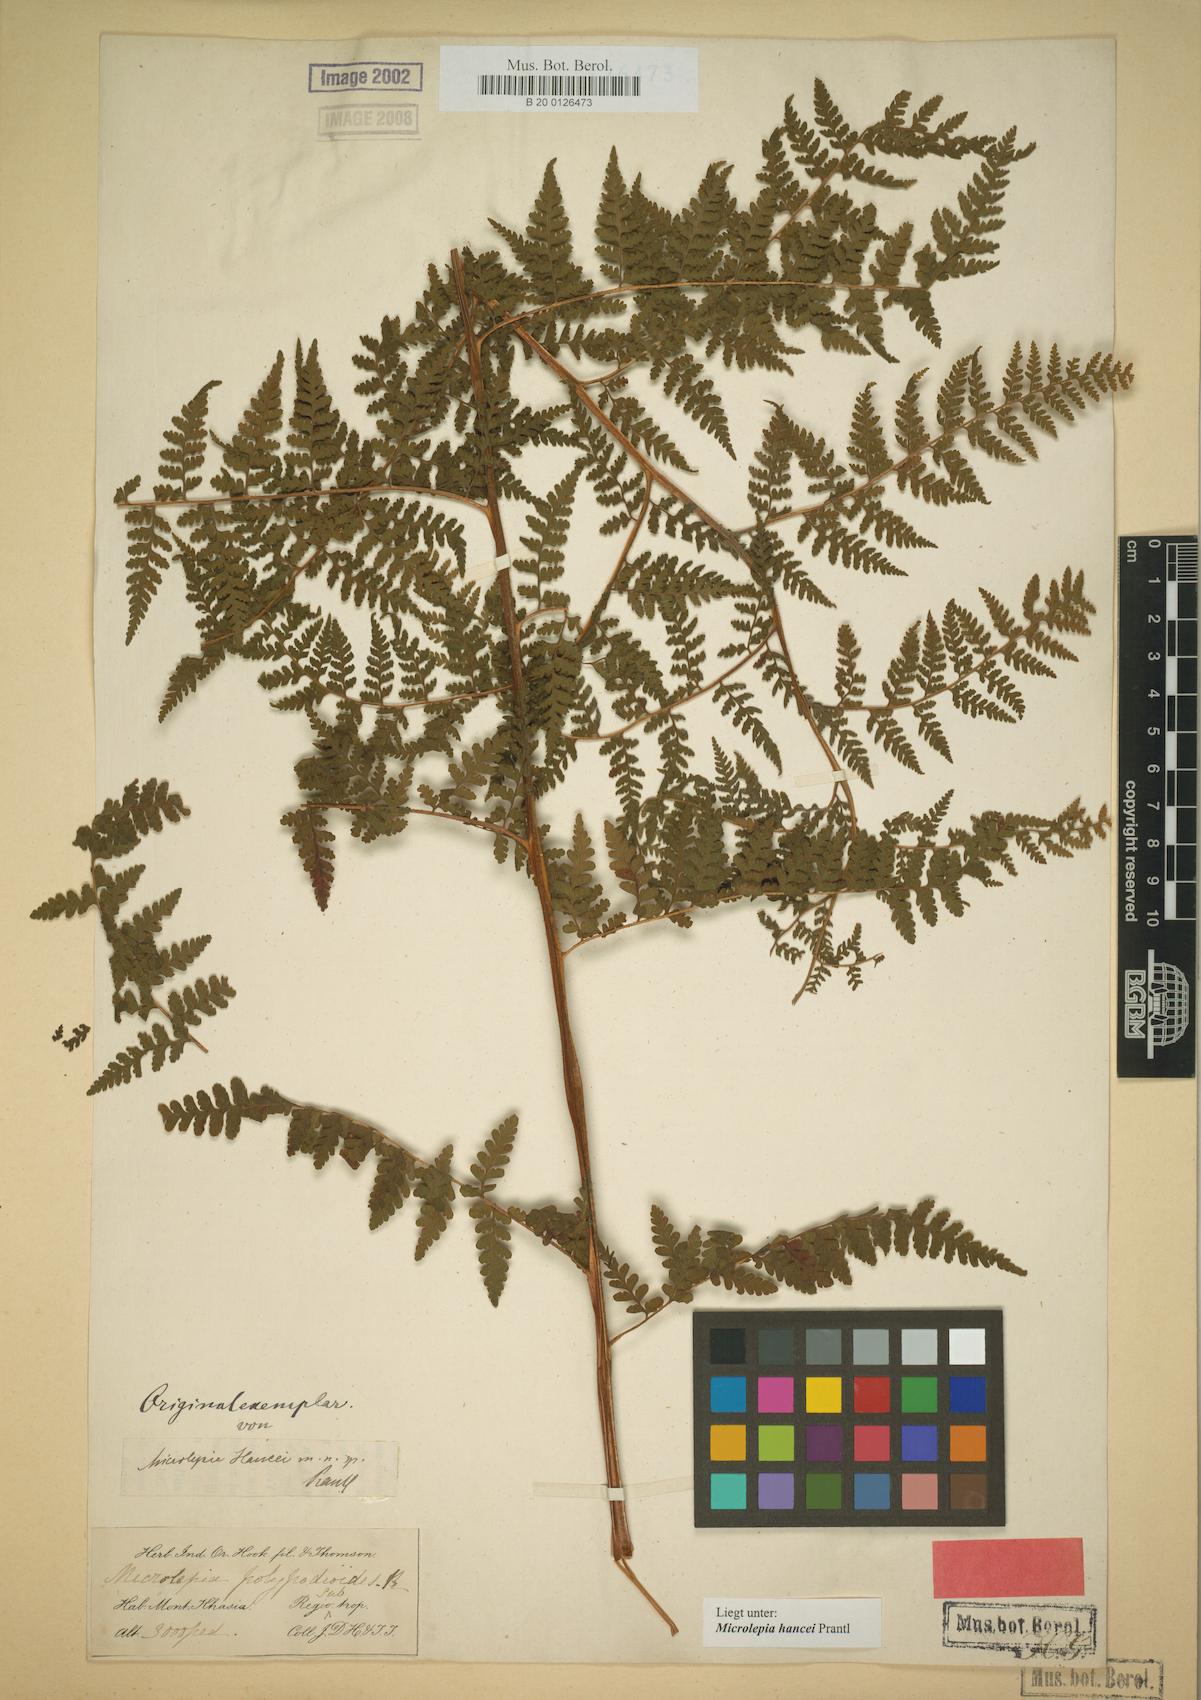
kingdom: Plantae
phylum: Tracheophyta
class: Polypodiopsida
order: Polypodiales
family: Dennstaedtiaceae
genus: Microlepia
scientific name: Microlepia nepalensis
